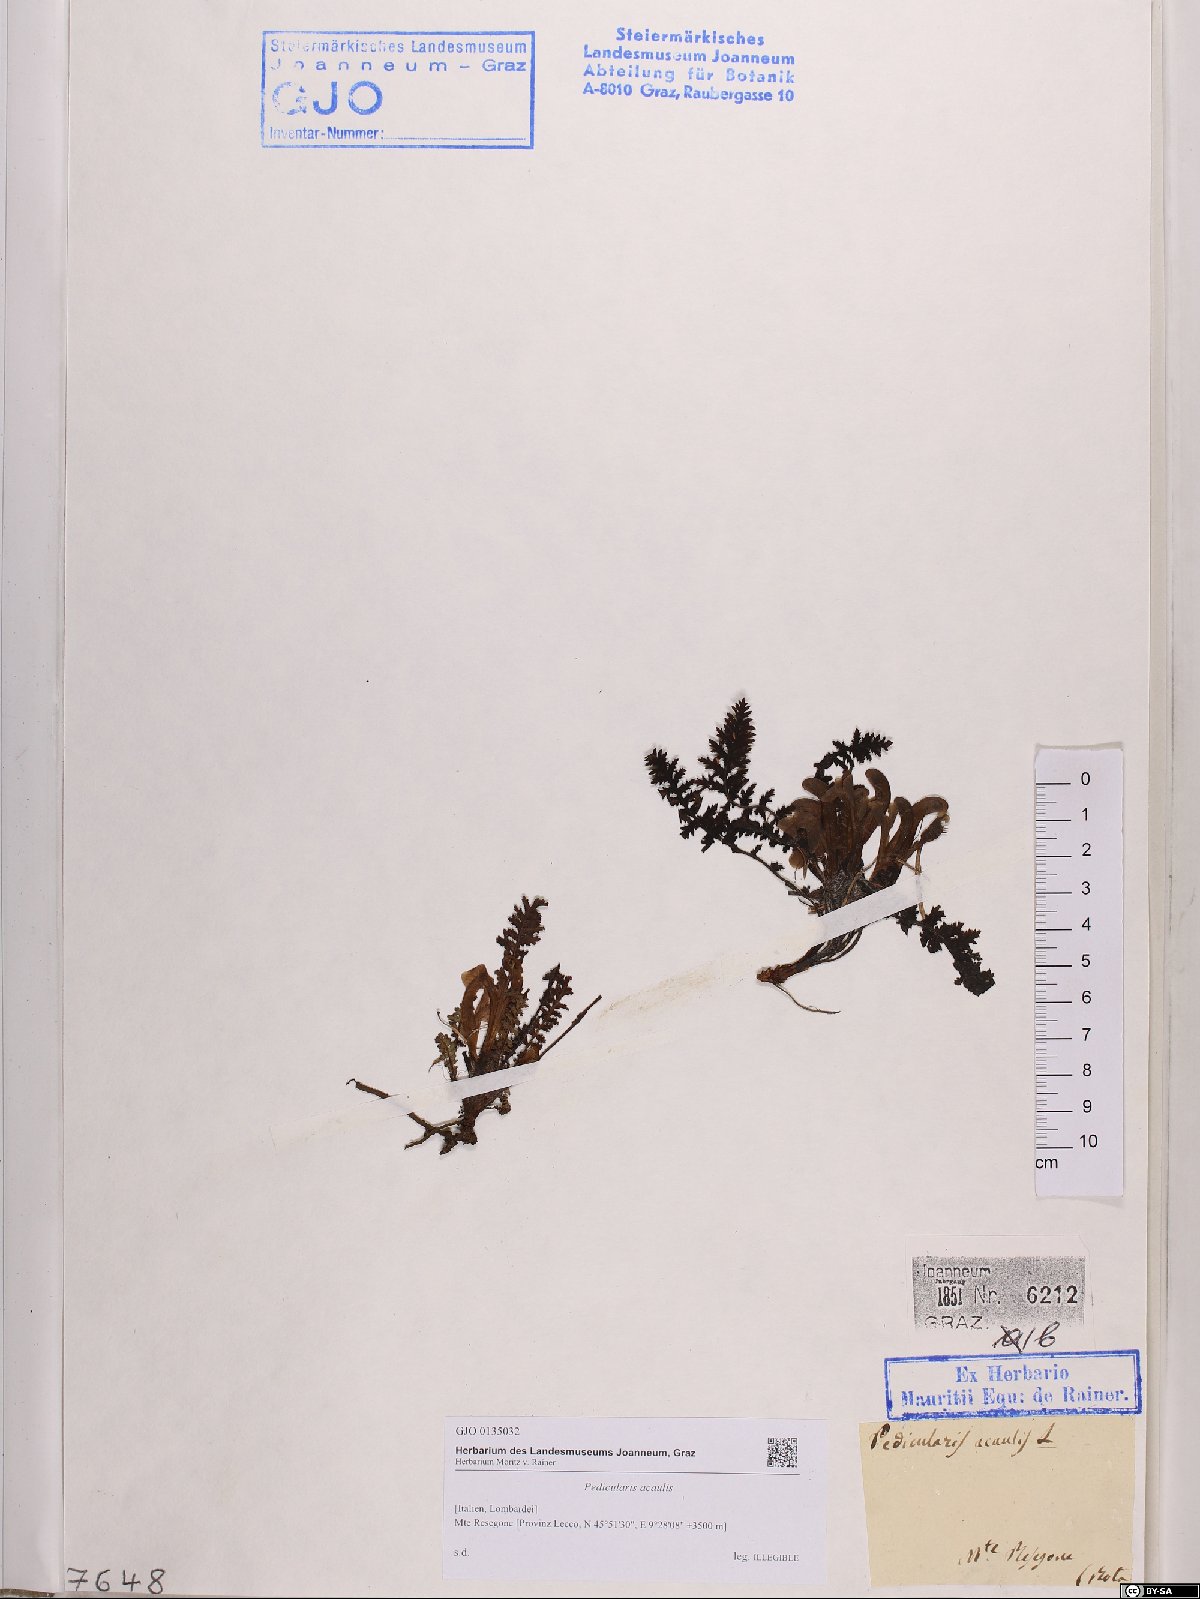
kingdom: Plantae
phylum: Tracheophyta
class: Magnoliopsida
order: Lamiales
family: Orobanchaceae
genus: Pedicularis
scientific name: Pedicularis acaulis
